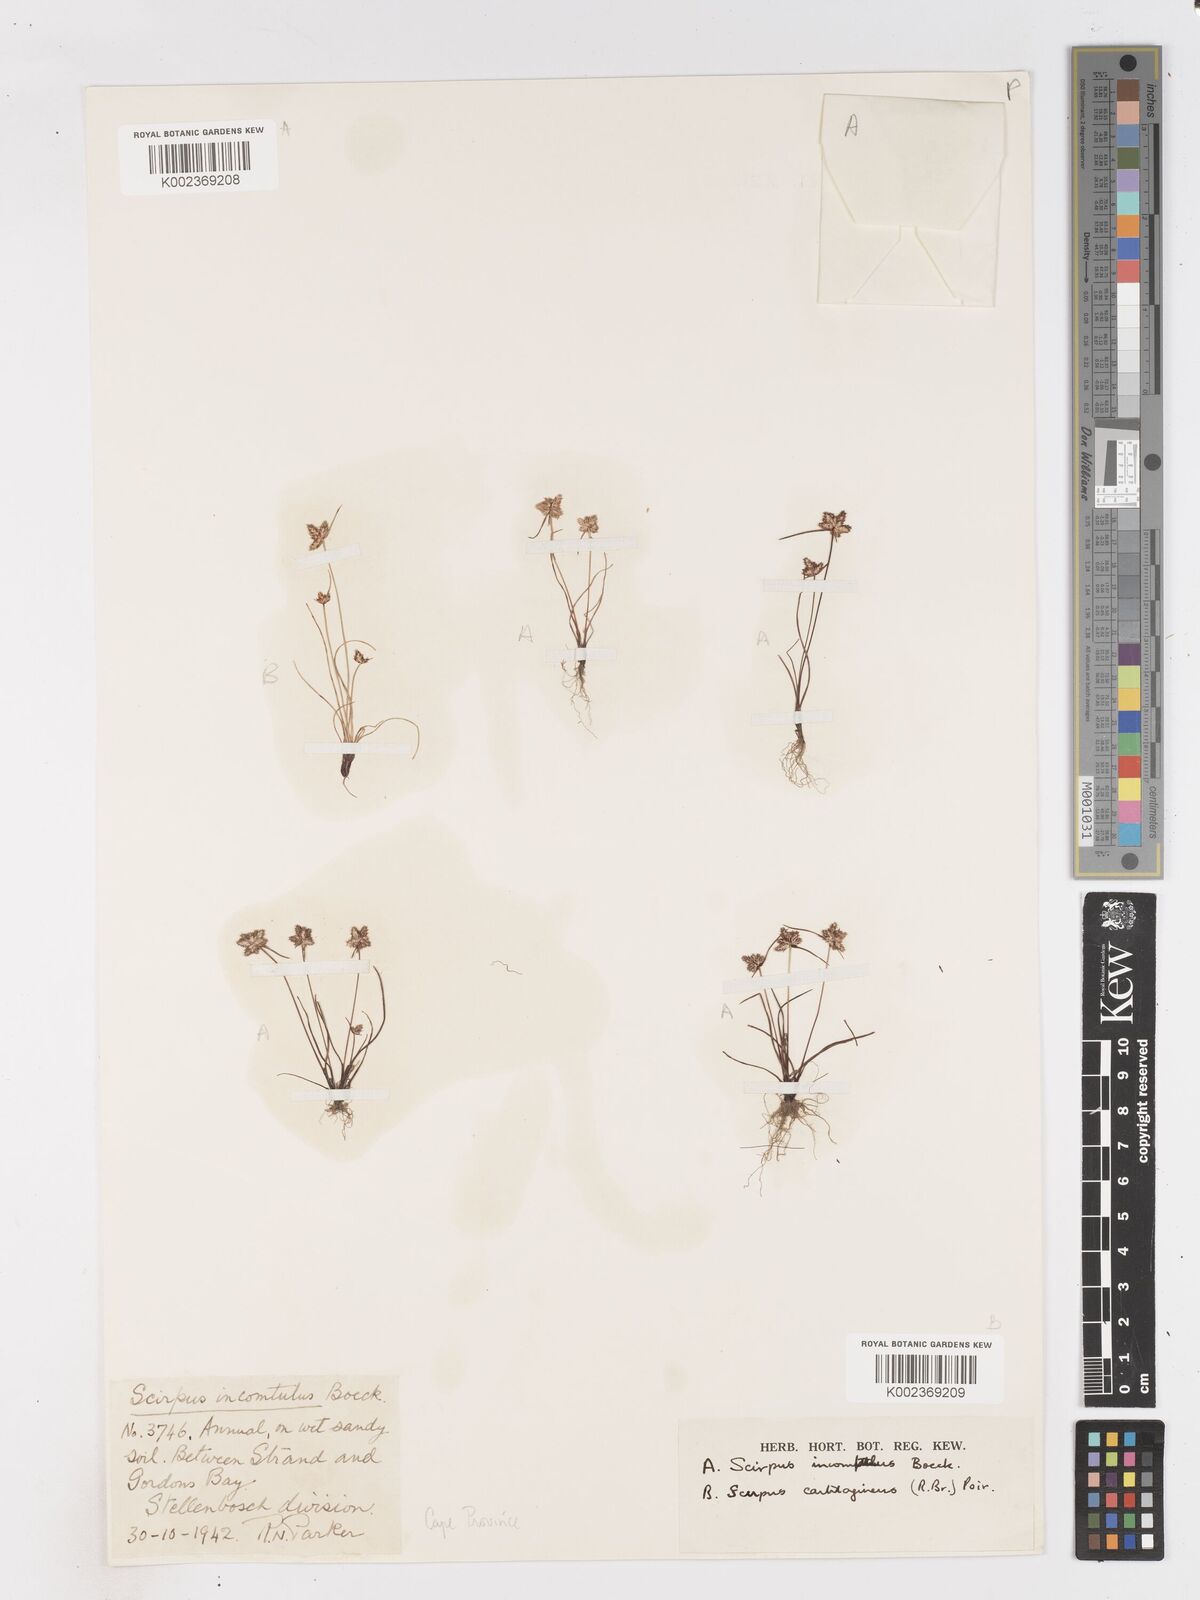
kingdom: Plantae
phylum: Tracheophyta
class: Liliopsida
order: Poales
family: Cyperaceae
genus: Ficinia
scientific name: Ficinia incomtula
